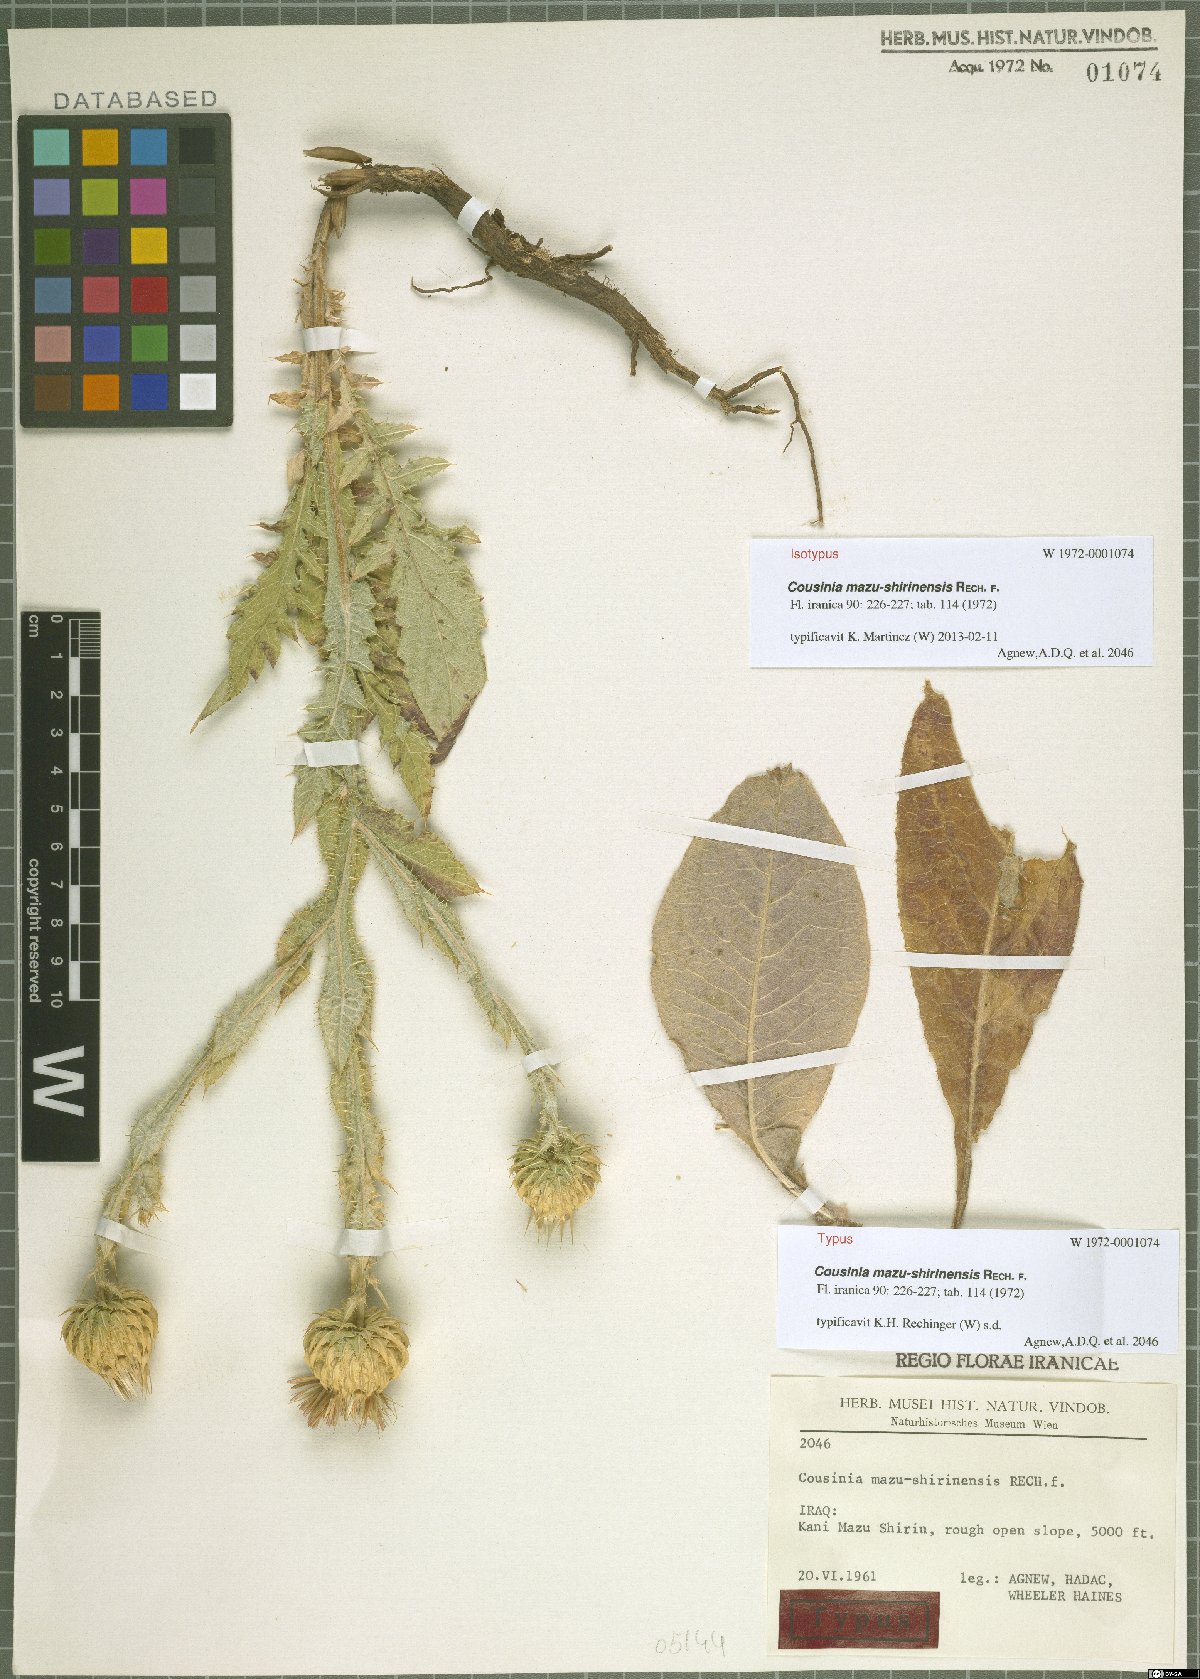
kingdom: Plantae
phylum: Tracheophyta
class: Magnoliopsida
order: Asterales
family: Asteraceae
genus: Cousinia
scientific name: Cousinia odontolepis
